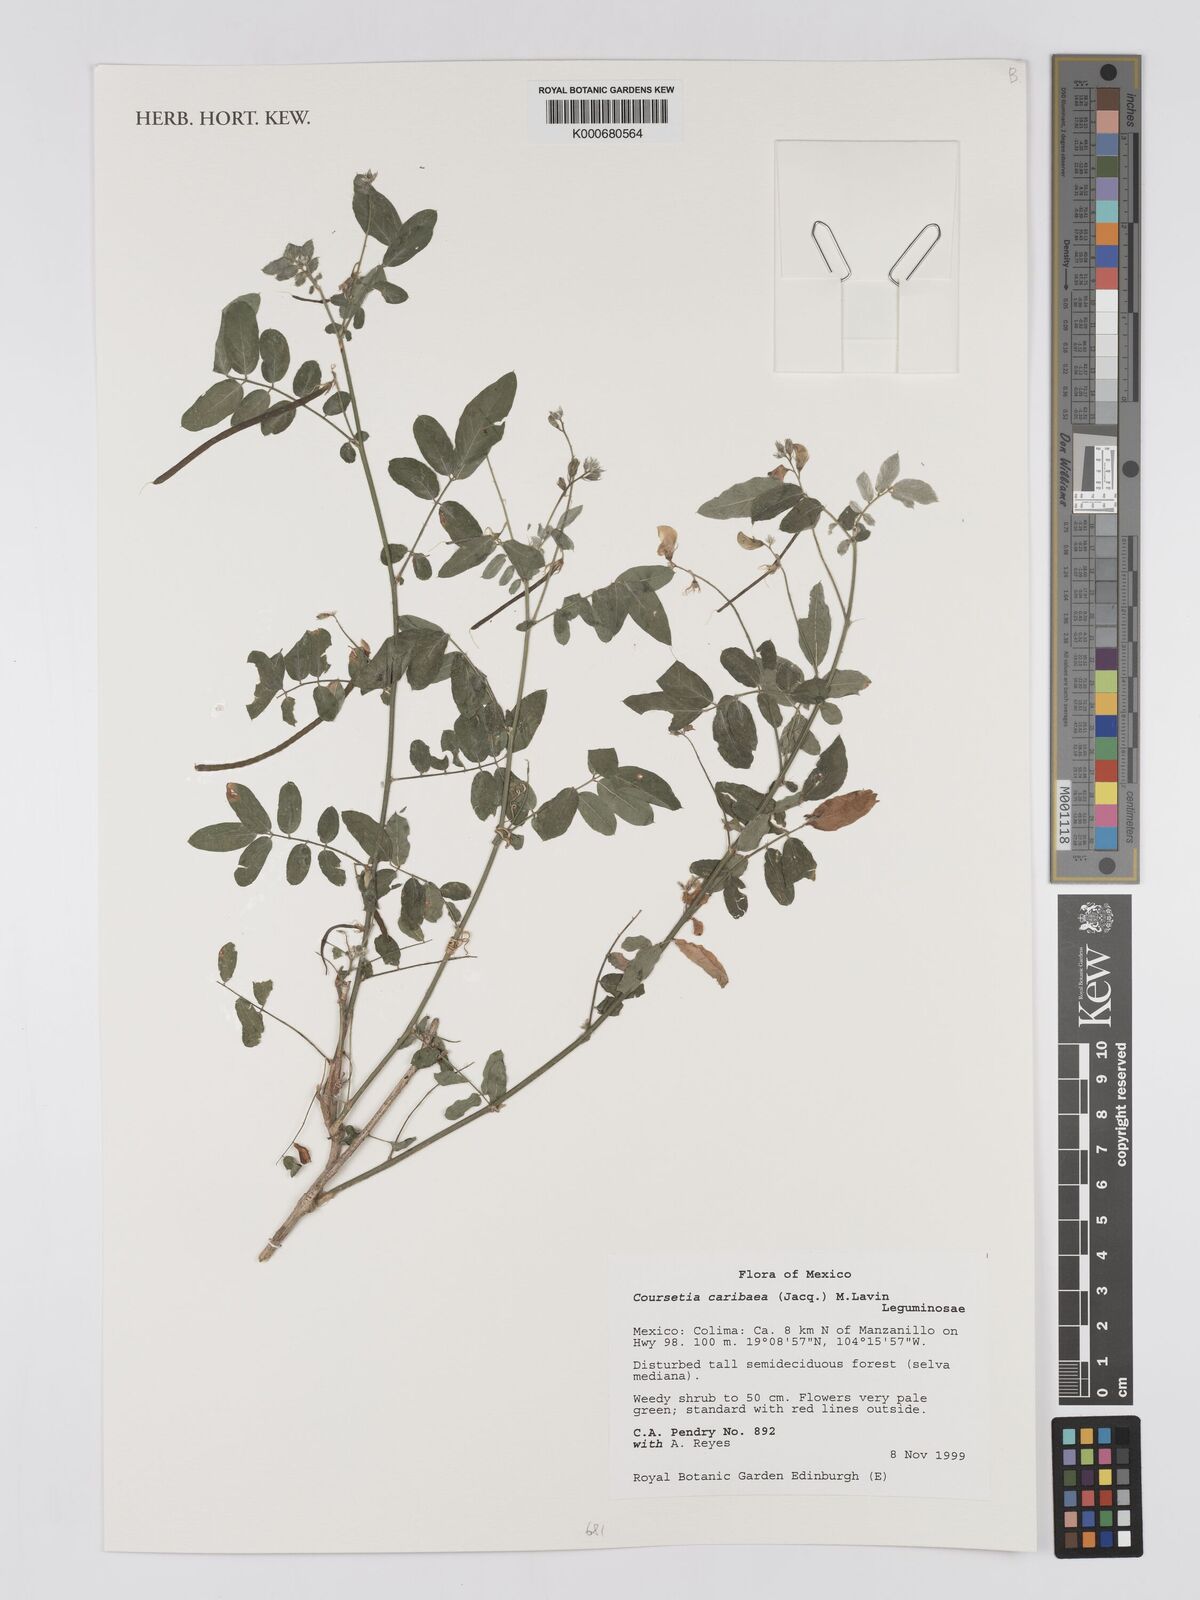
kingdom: Plantae
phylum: Tracheophyta
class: Magnoliopsida
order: Fabales
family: Fabaceae
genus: Coursetia
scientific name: Coursetia caribaea
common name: Anil falso
